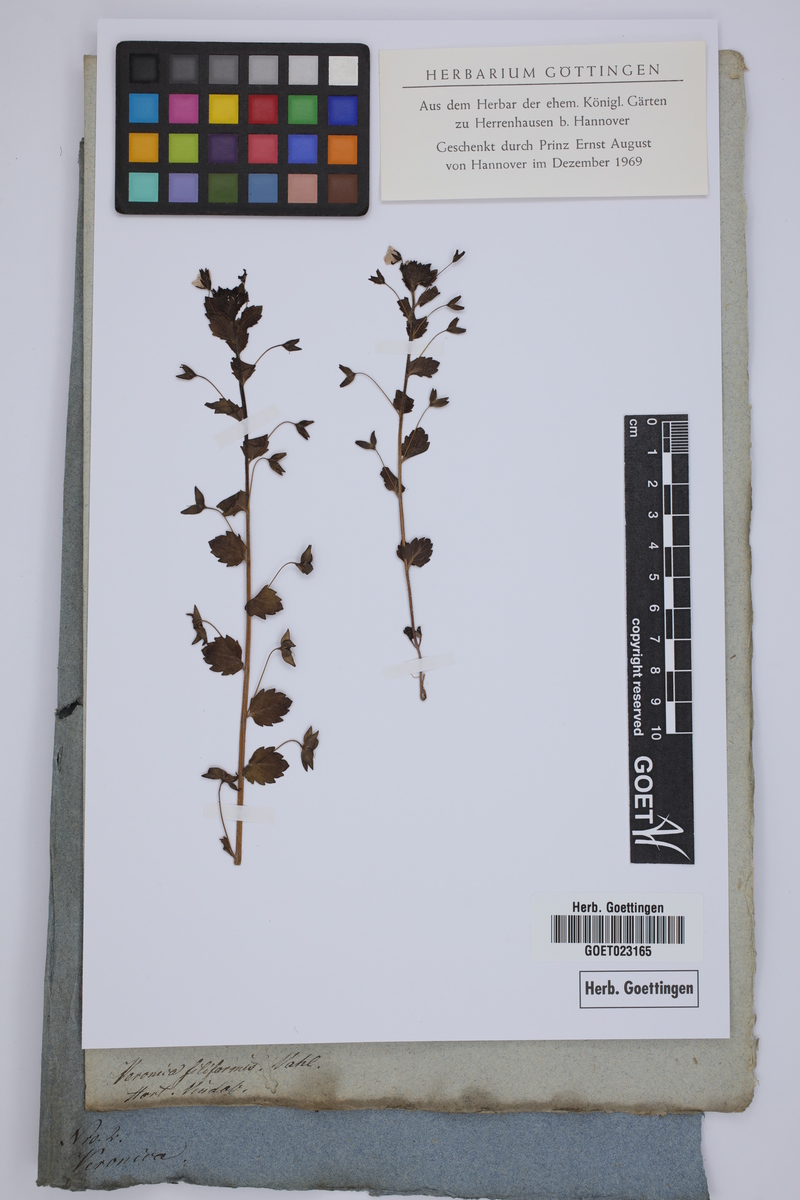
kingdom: Plantae
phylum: Tracheophyta
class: Magnoliopsida
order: Lamiales
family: Plantaginaceae
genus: Veronica
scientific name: Veronica filiformis
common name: Slender speedwell
